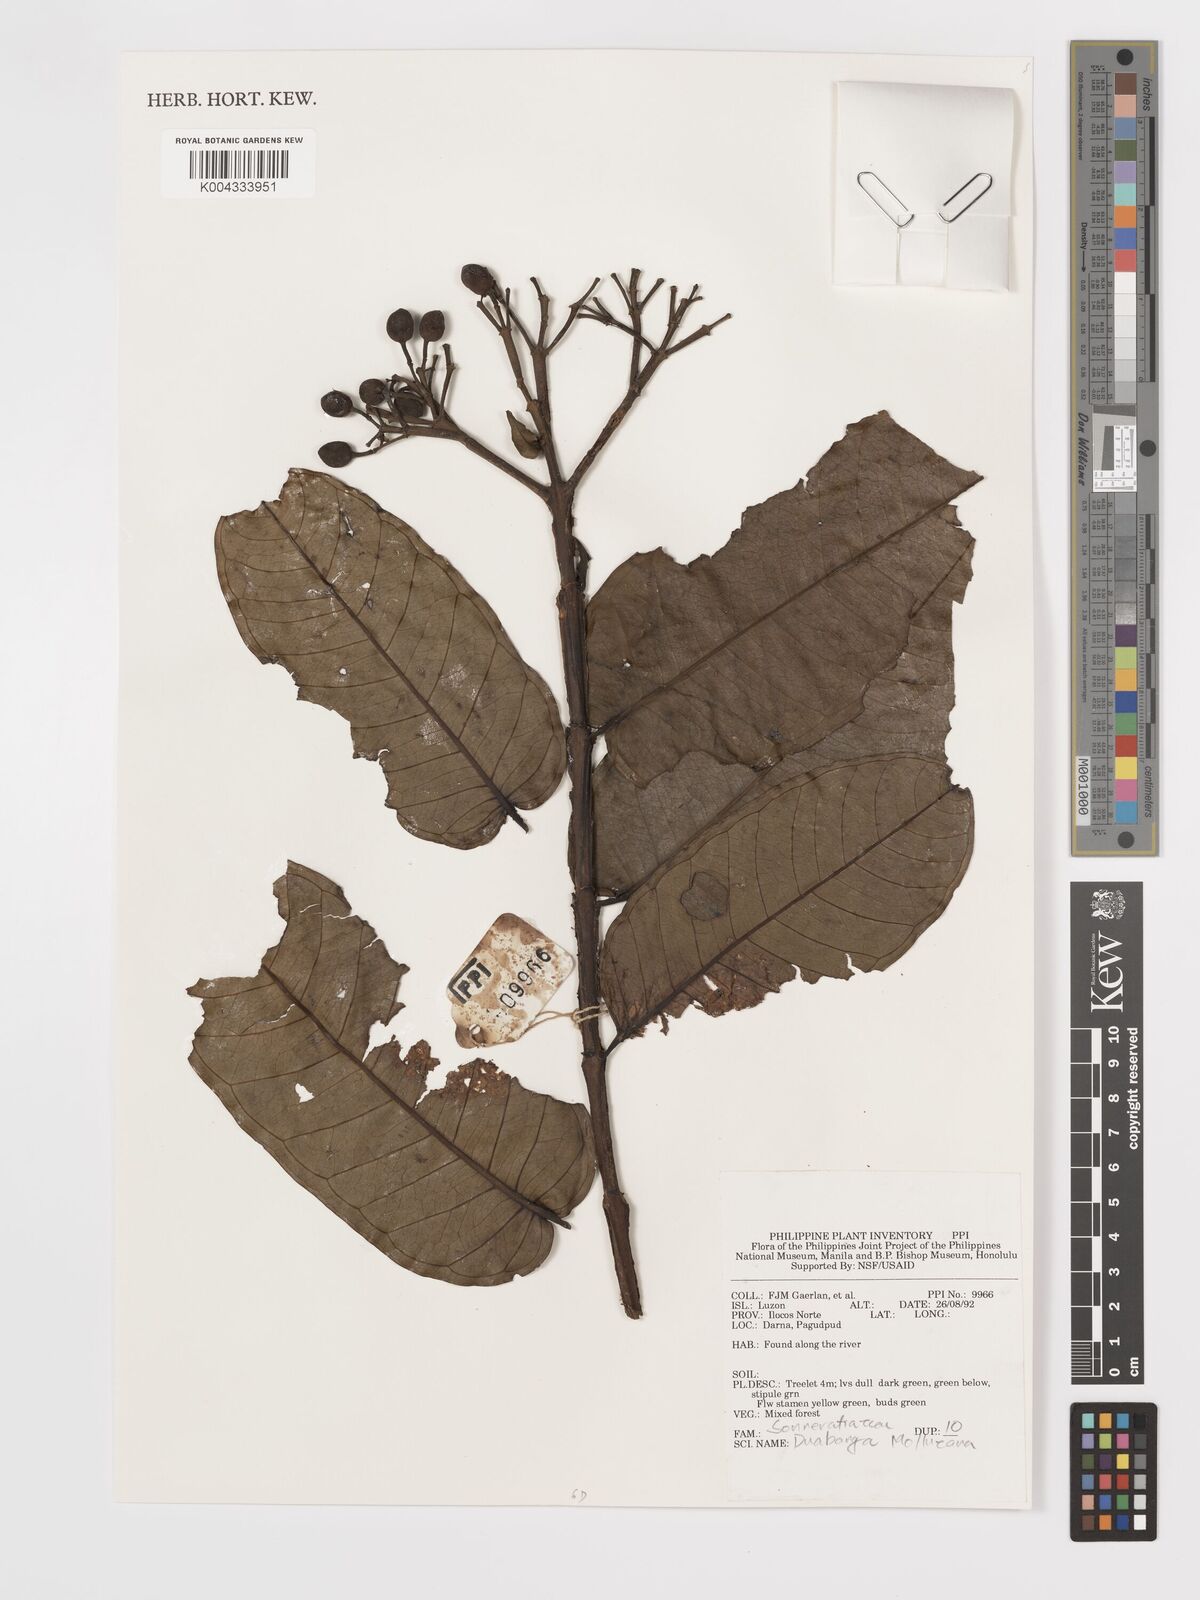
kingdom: Plantae
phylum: Tracheophyta
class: Magnoliopsida
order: Myrtales
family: Lythraceae
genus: Duabanga
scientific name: Duabanga moluccana
